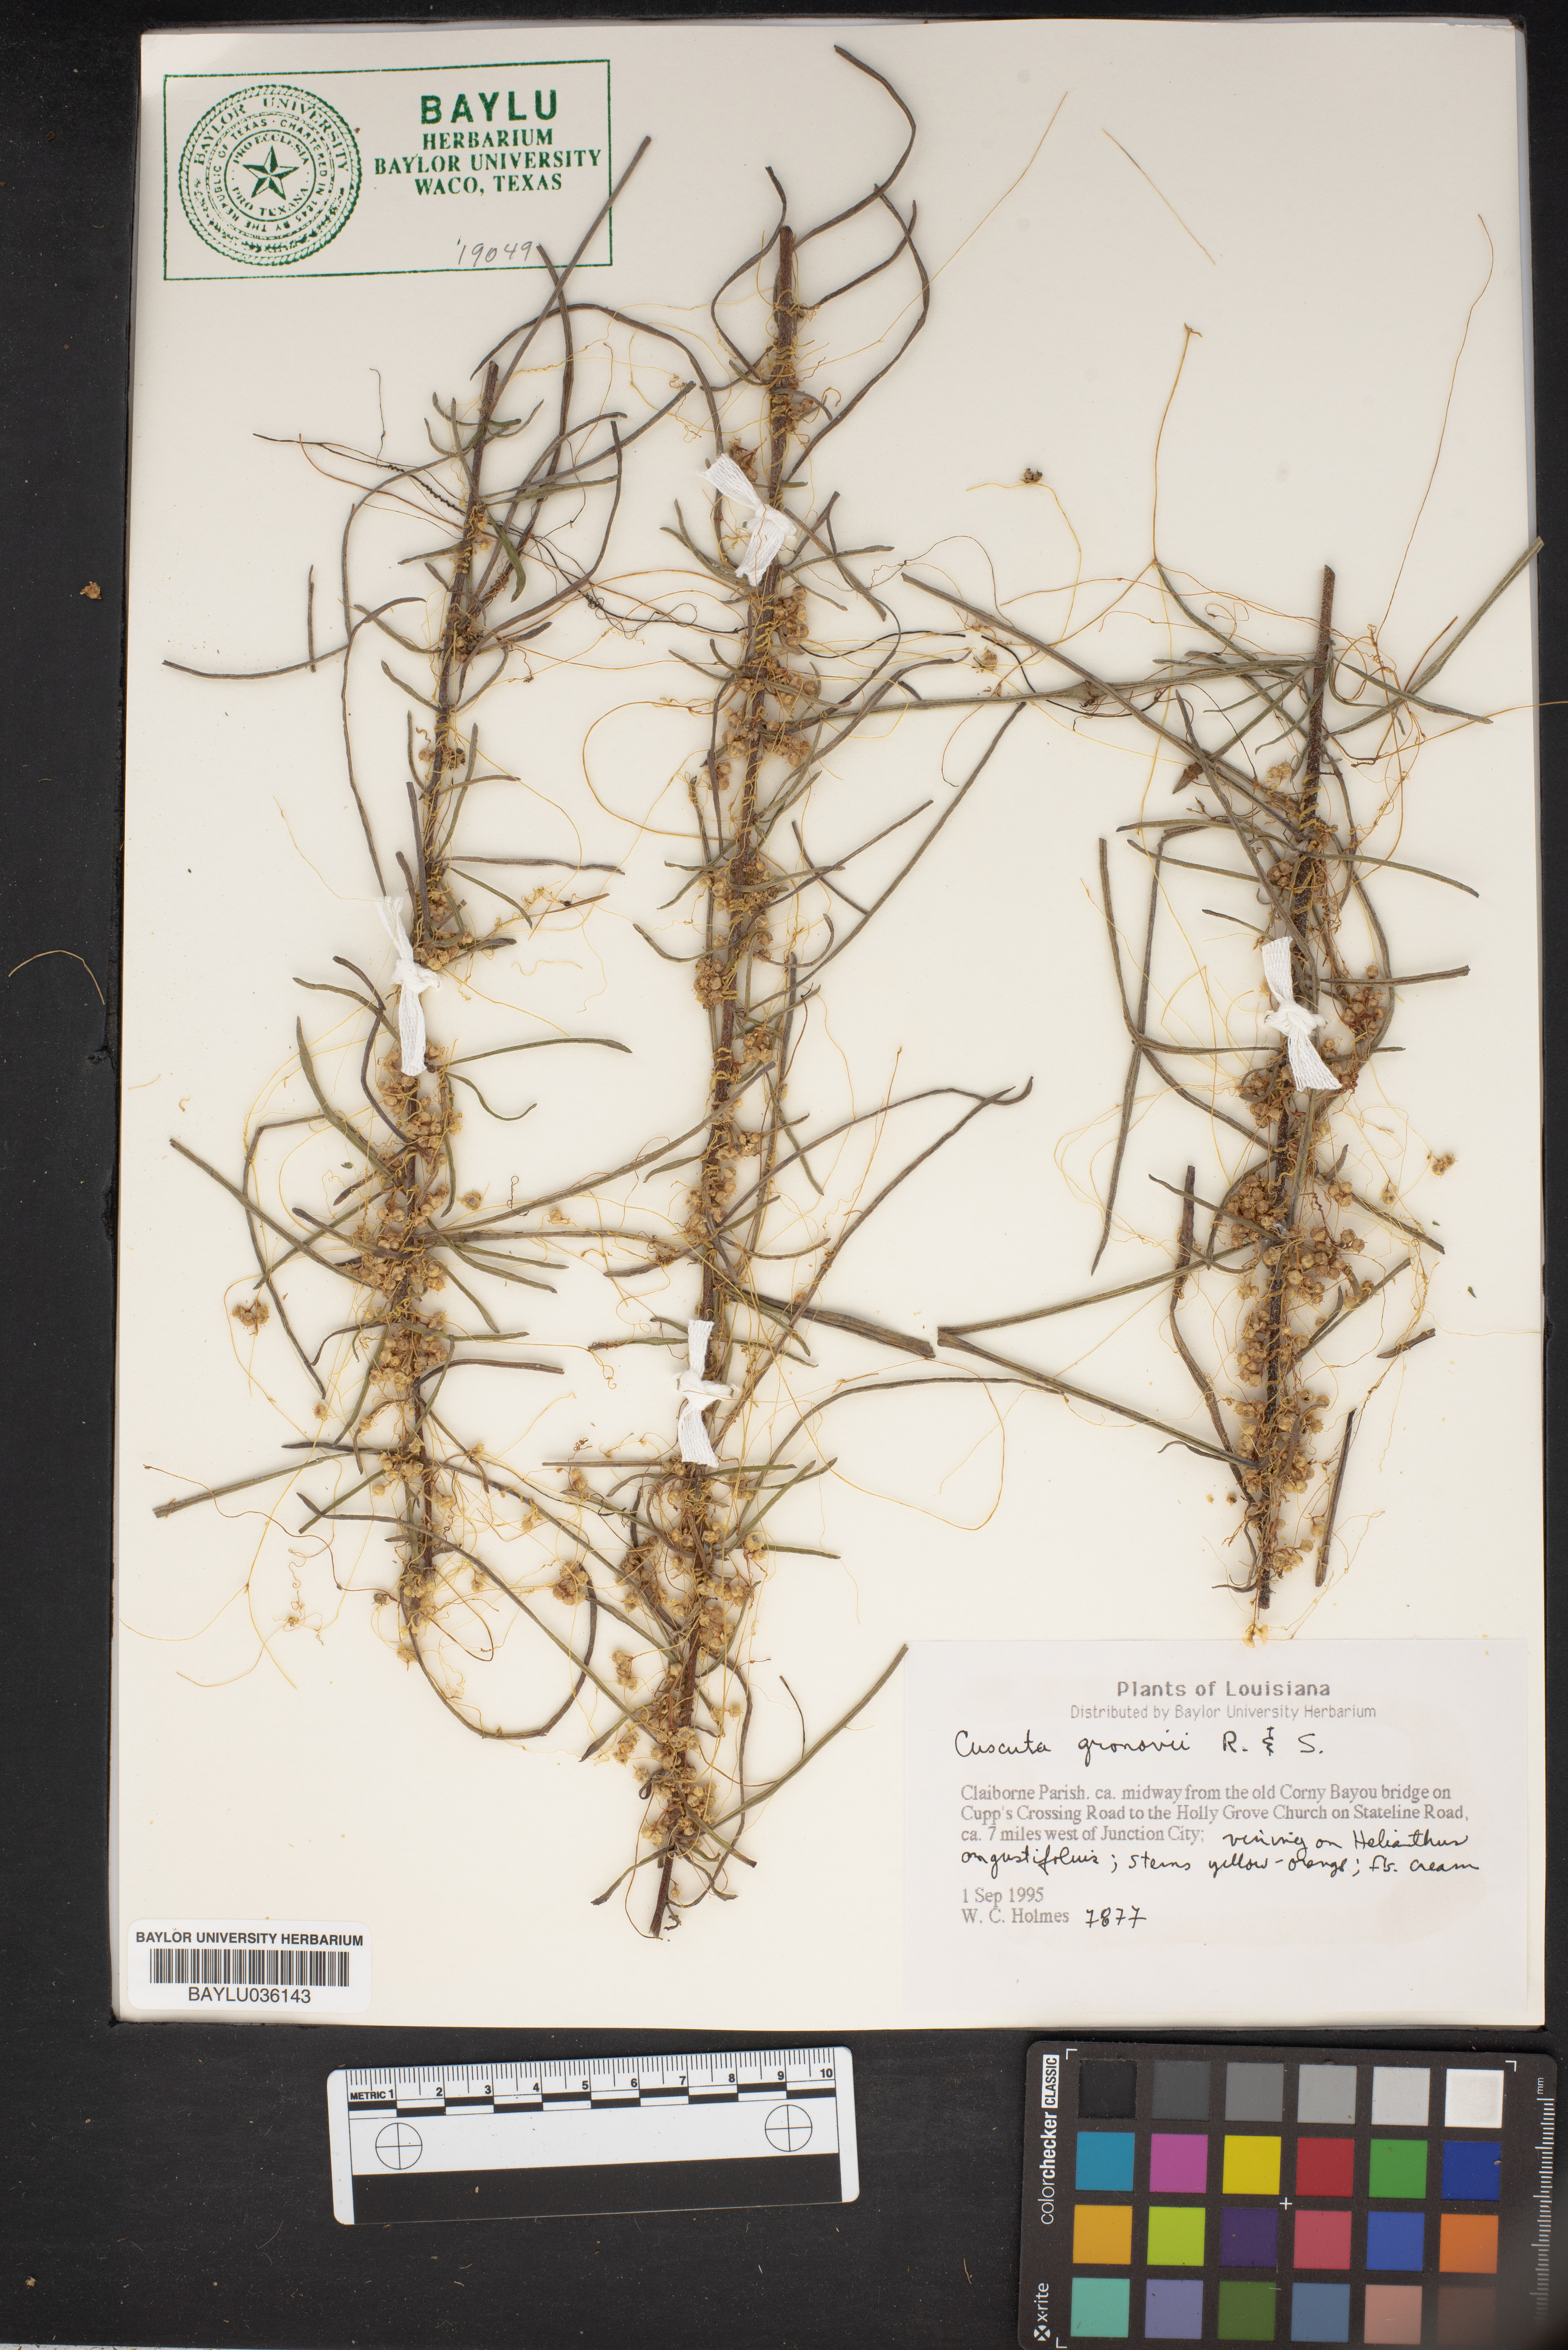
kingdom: Plantae
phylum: Tracheophyta
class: Magnoliopsida
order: Solanales
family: Convolvulaceae
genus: Cuscuta
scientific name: Cuscuta gronovii
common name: Common dodder
